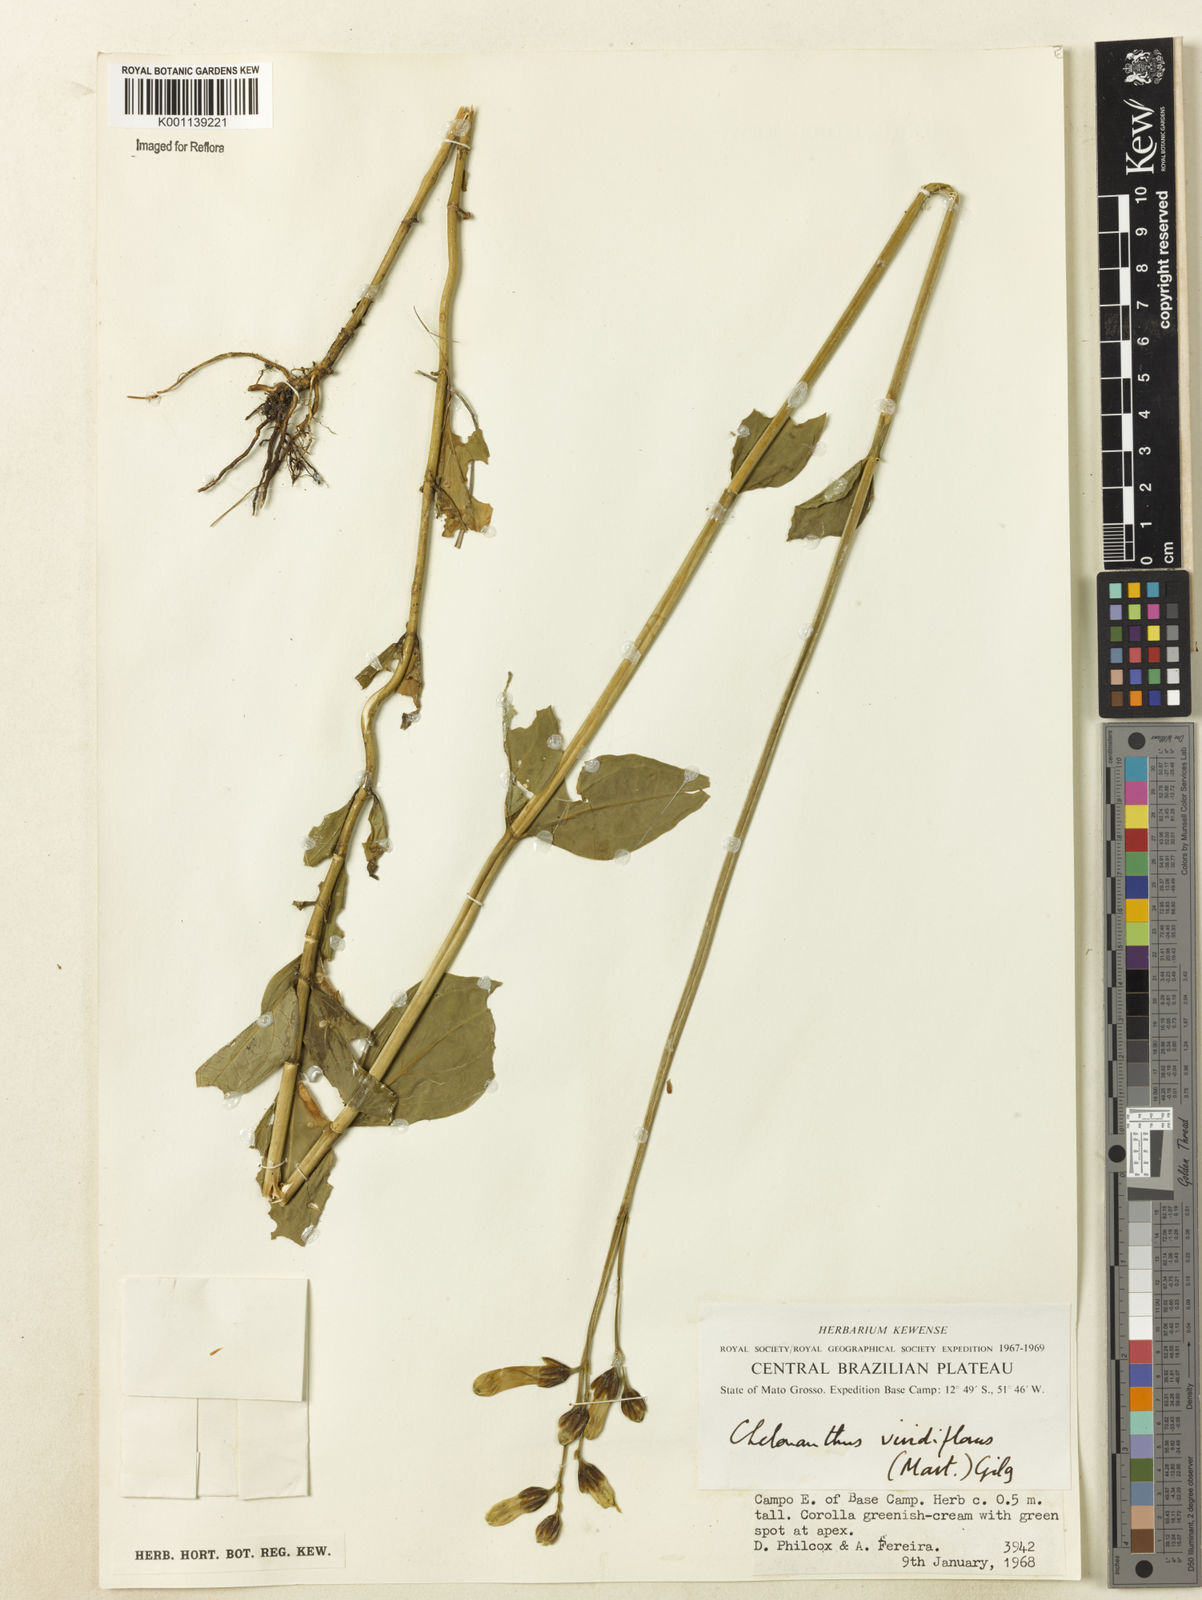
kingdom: Plantae
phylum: Tracheophyta
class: Magnoliopsida
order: Gentianales
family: Gentianaceae
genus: Chelonanthus
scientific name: Chelonanthus viridiflorus
